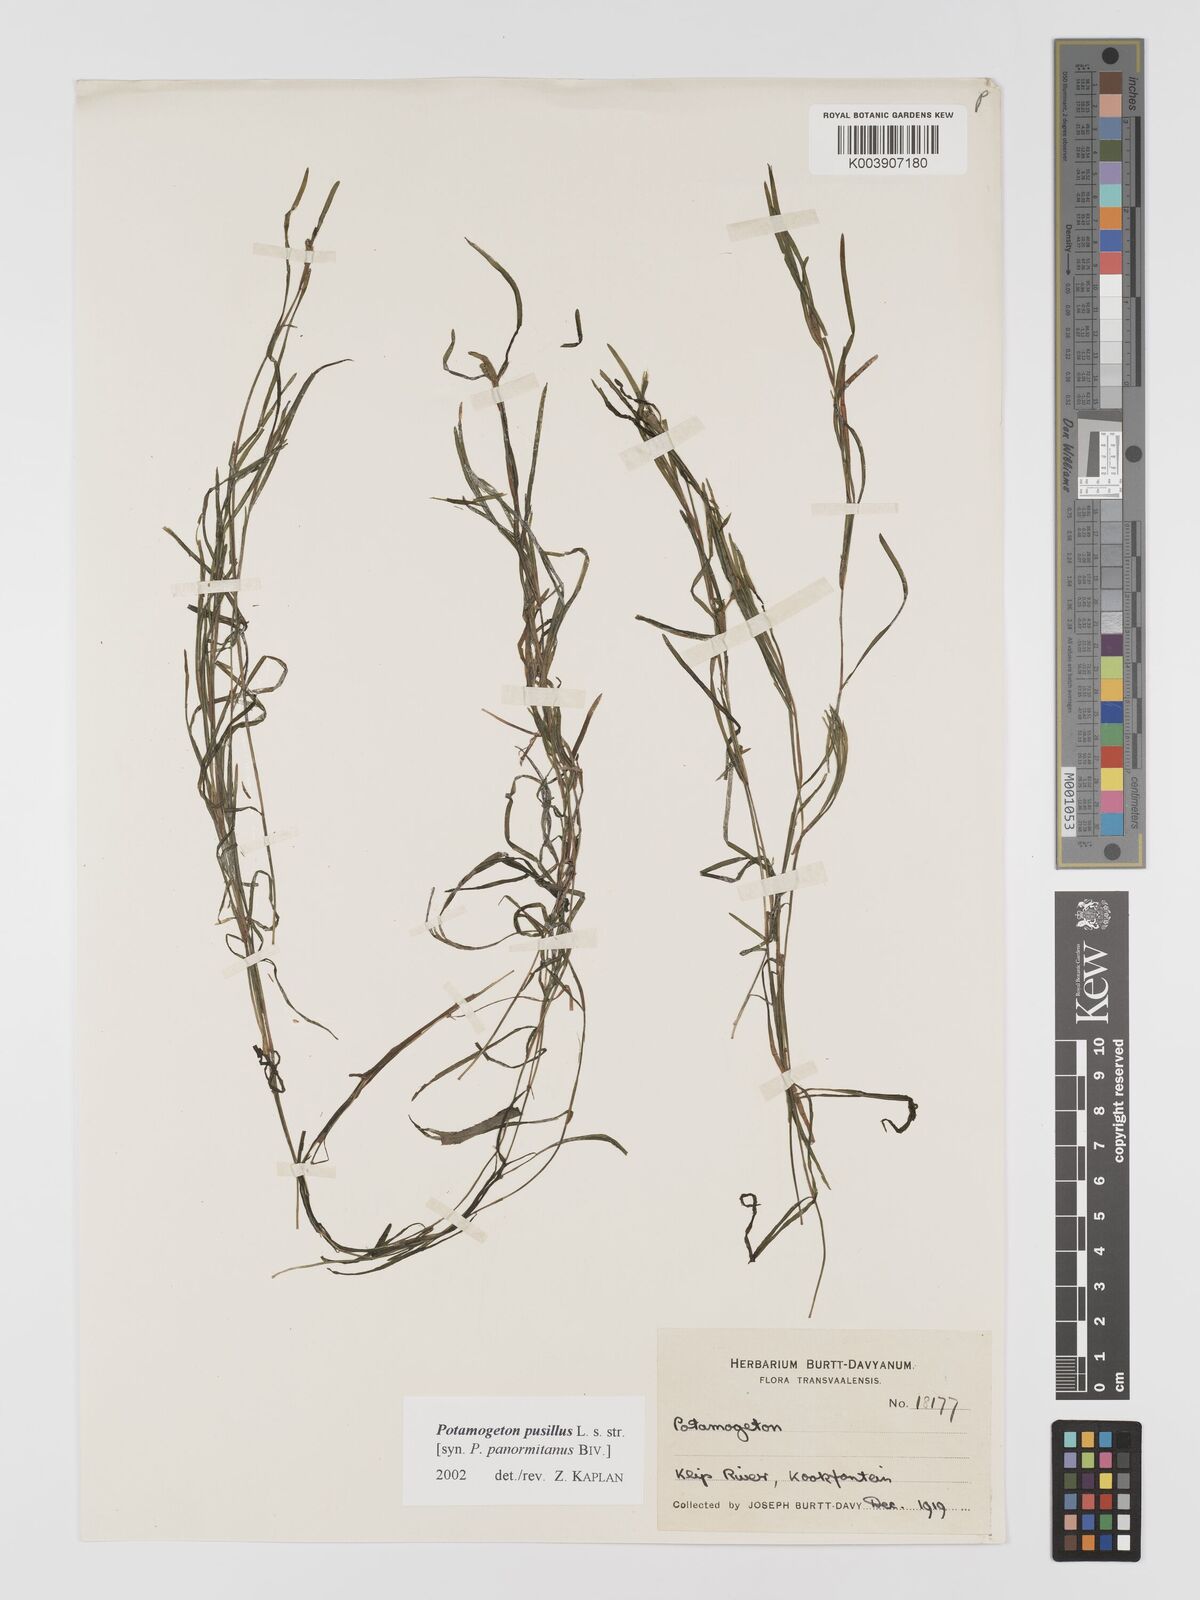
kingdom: Plantae
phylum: Tracheophyta
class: Liliopsida
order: Alismatales
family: Potamogetonaceae
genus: Potamogeton
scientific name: Potamogeton pusillus
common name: Lesser pondweed
